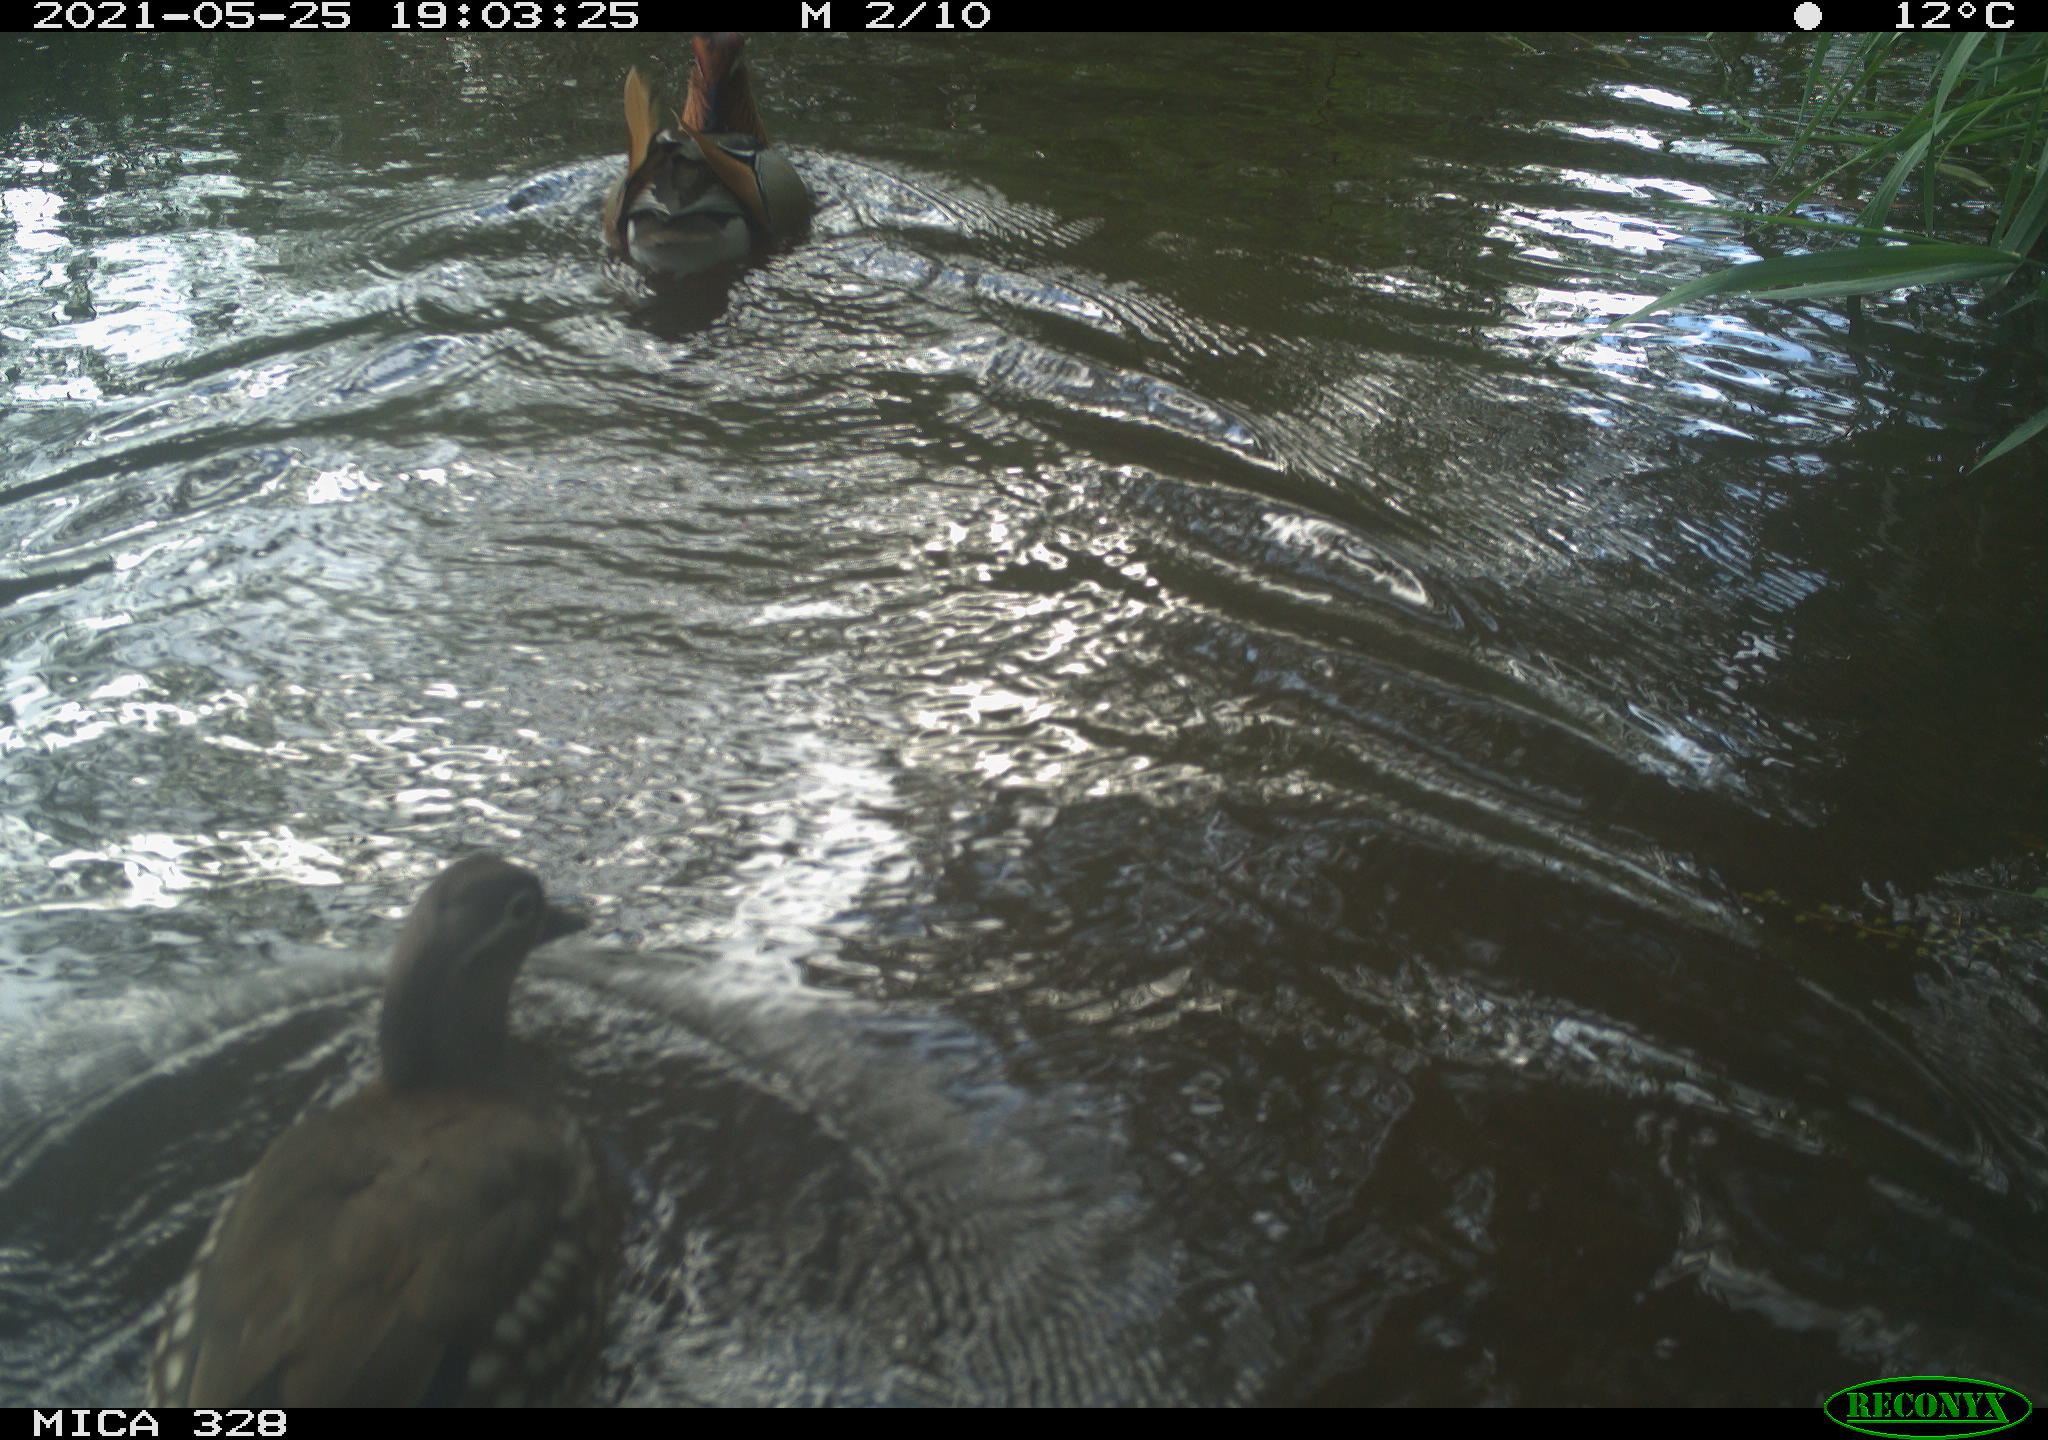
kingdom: Animalia
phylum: Chordata
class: Aves
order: Anseriformes
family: Anatidae
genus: Aix
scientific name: Aix galericulata
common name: Mandarin duck
